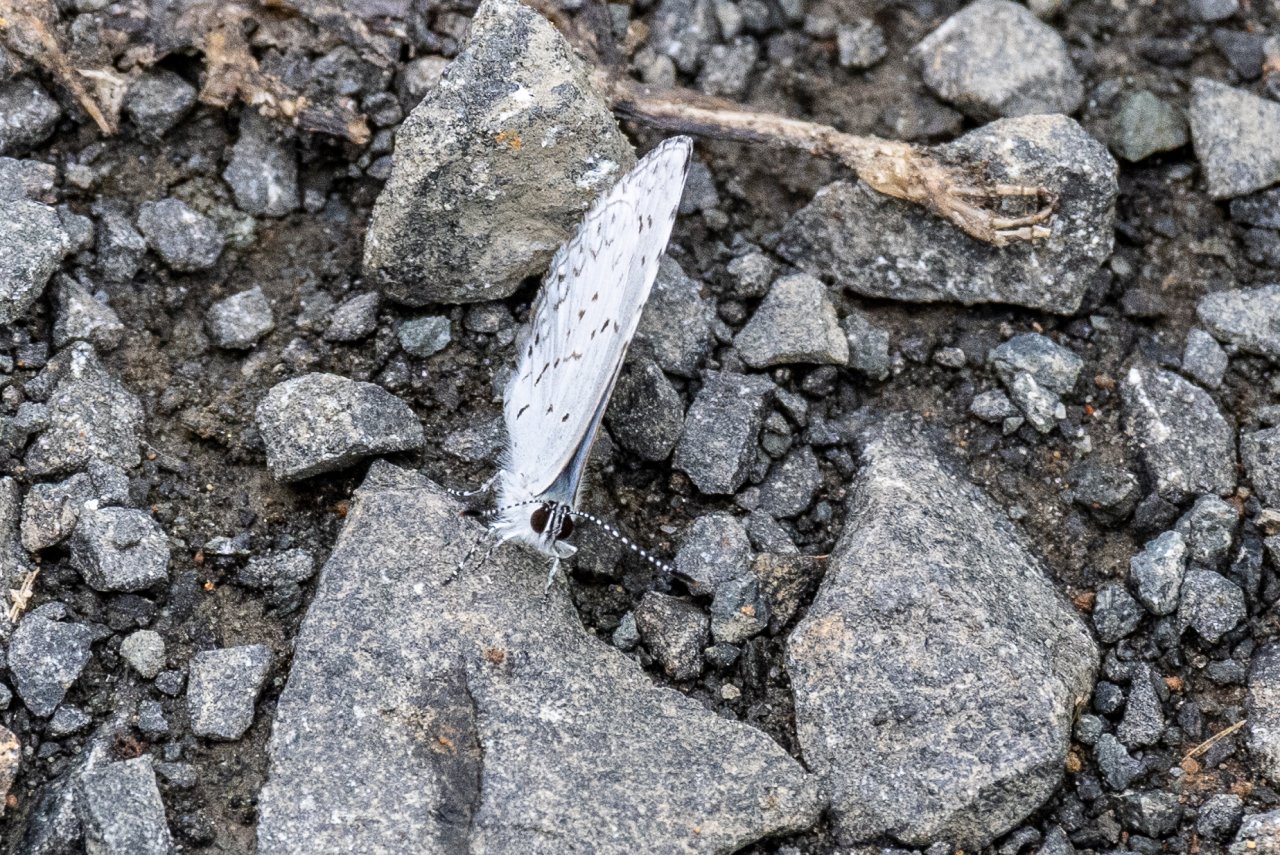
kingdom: Animalia
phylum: Arthropoda
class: Insecta
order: Lepidoptera
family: Lycaenidae
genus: Cyaniris
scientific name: Cyaniris neglecta
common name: Summer Azure
